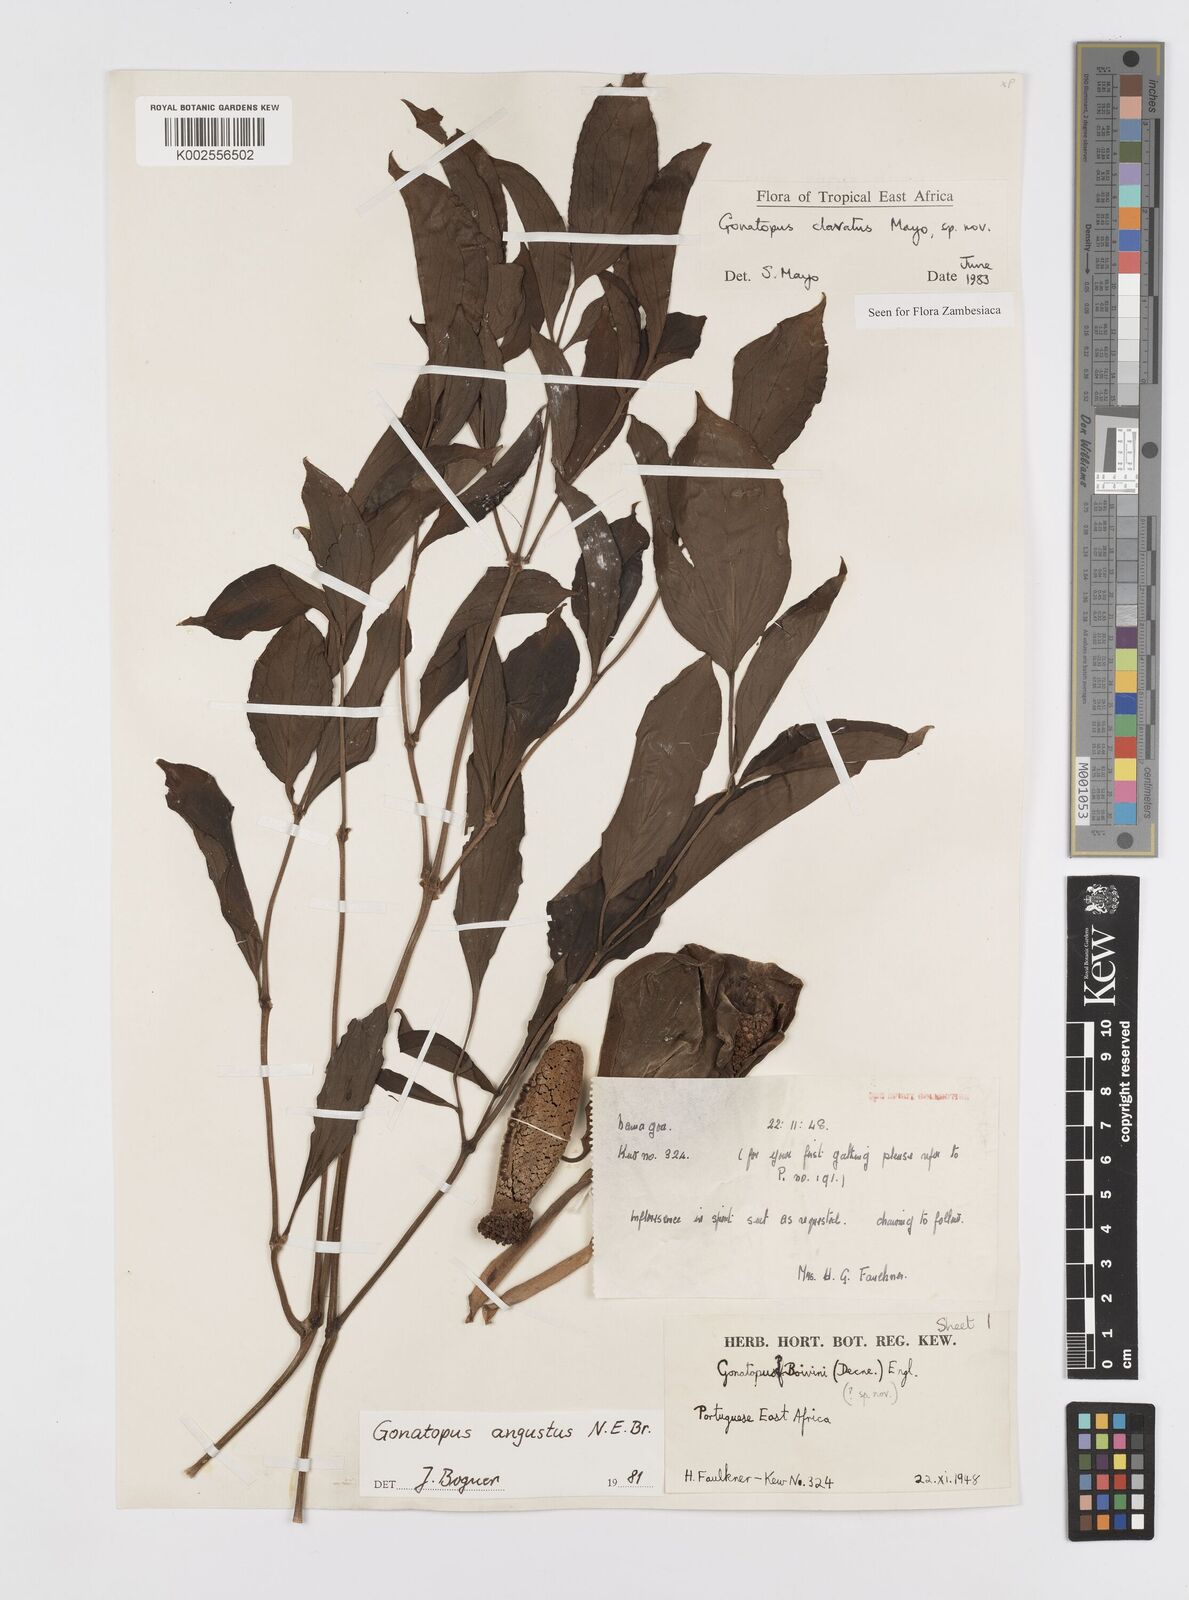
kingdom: Plantae
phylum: Tracheophyta
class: Liliopsida
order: Alismatales
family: Araceae
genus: Gonatopus
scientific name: Gonatopus clavatus
